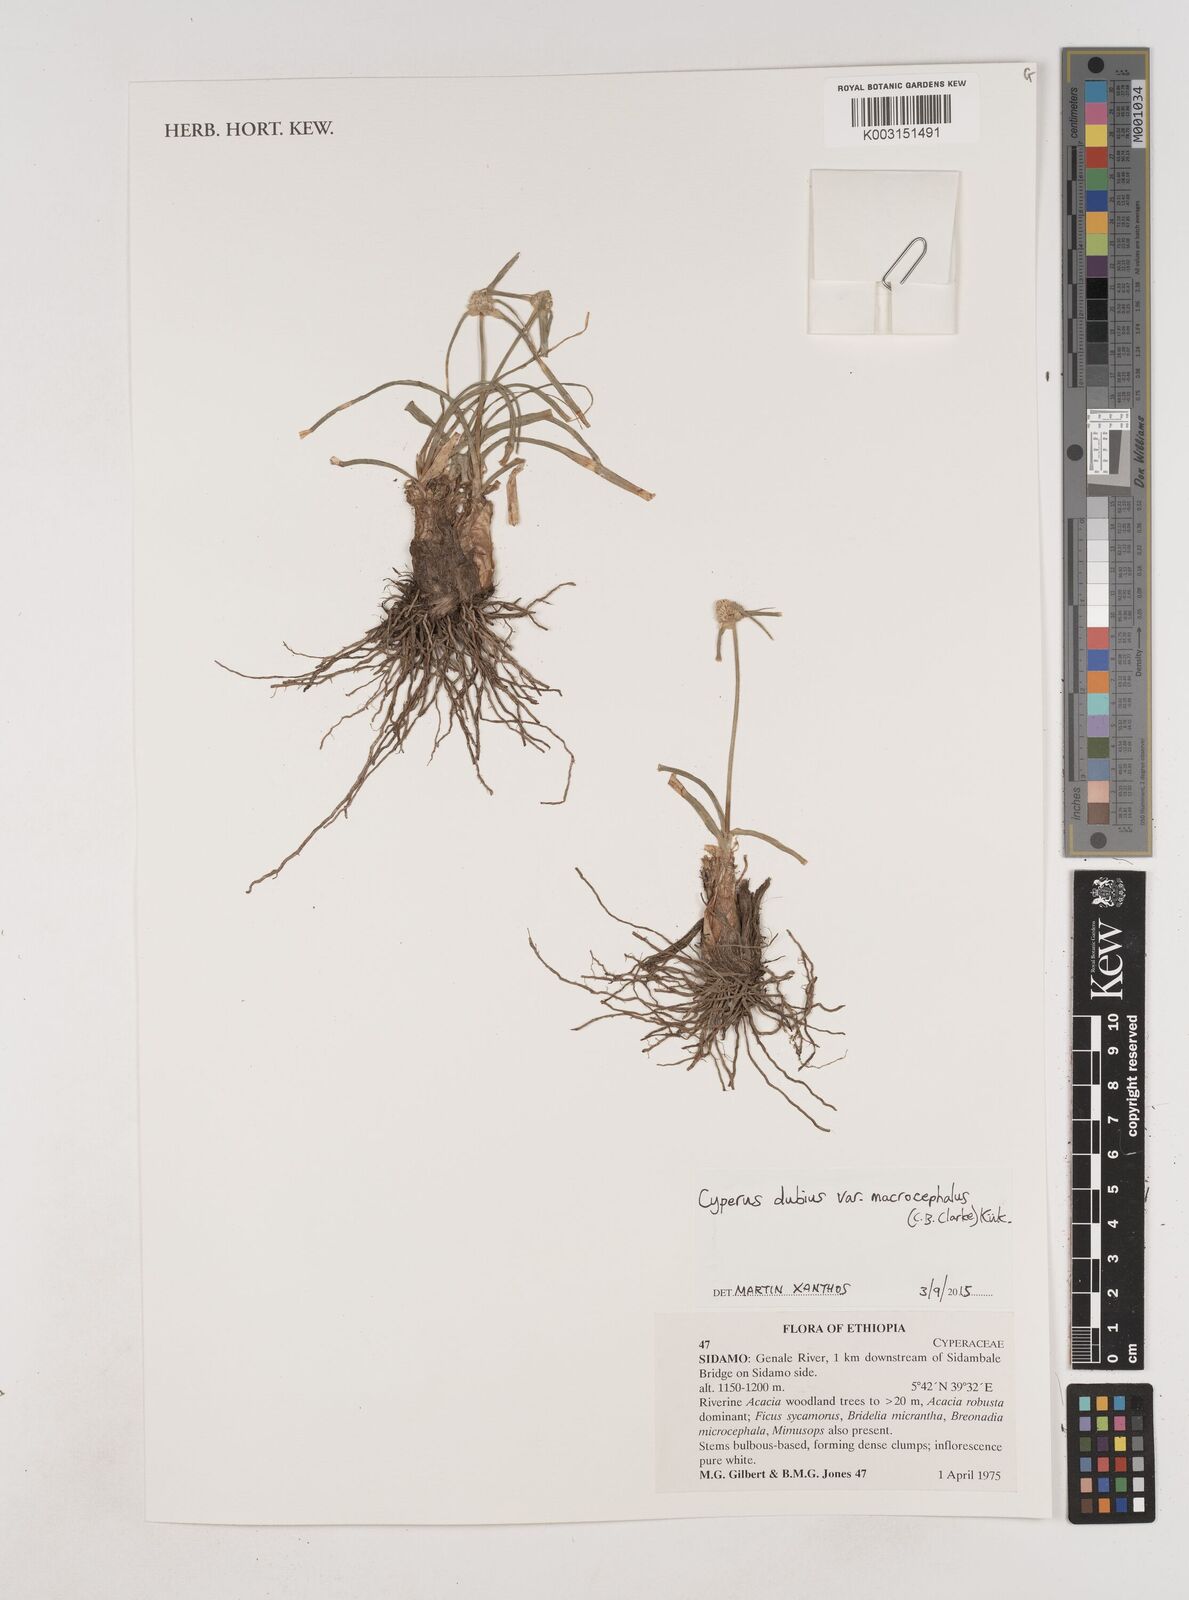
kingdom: Plantae
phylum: Tracheophyta
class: Liliopsida
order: Poales
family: Cyperaceae
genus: Cyperus
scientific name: Cyperus dubius
